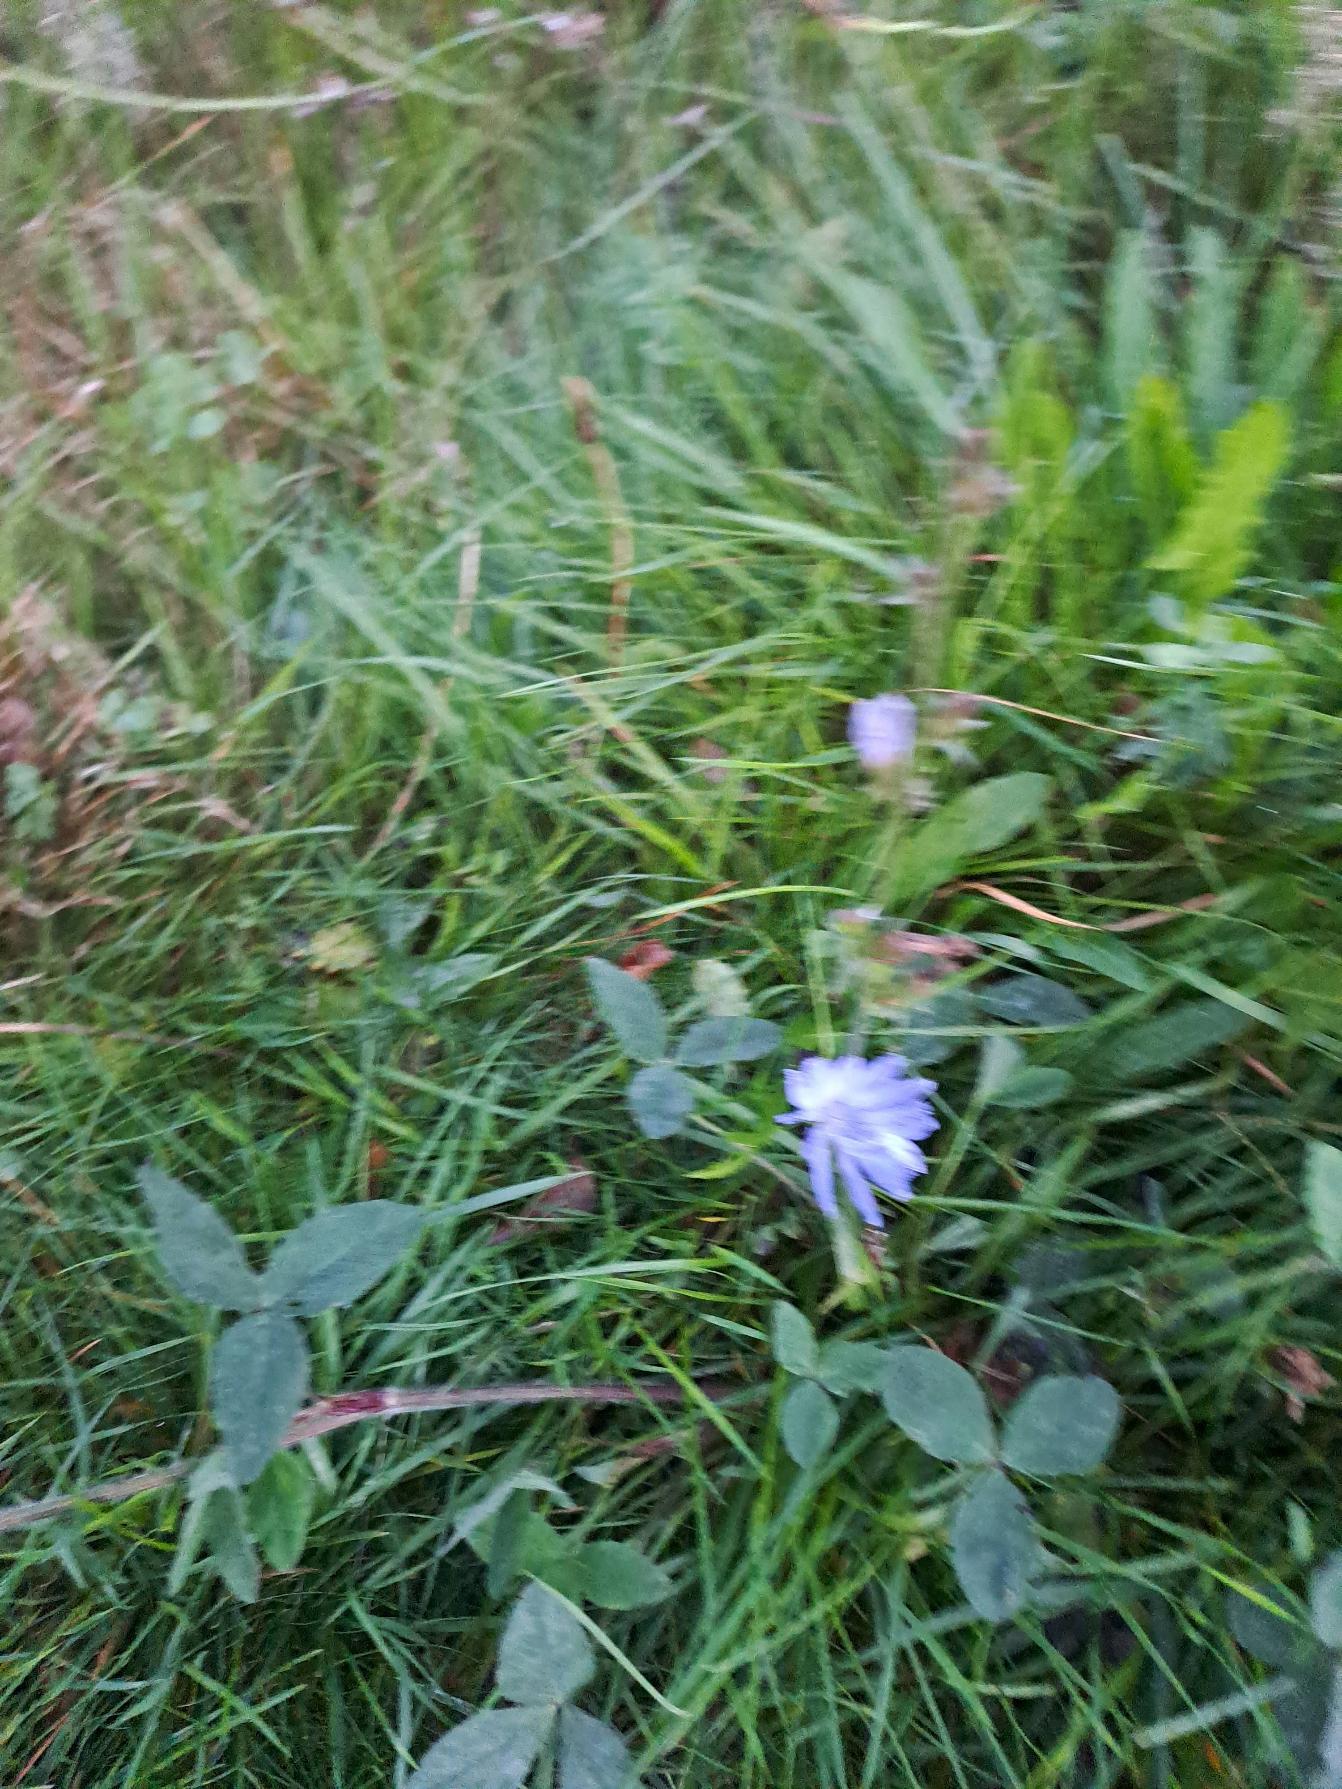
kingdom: Plantae
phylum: Tracheophyta
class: Magnoliopsida
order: Asterales
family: Asteraceae
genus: Cichorium
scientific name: Cichorium intybus
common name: Cikorie
